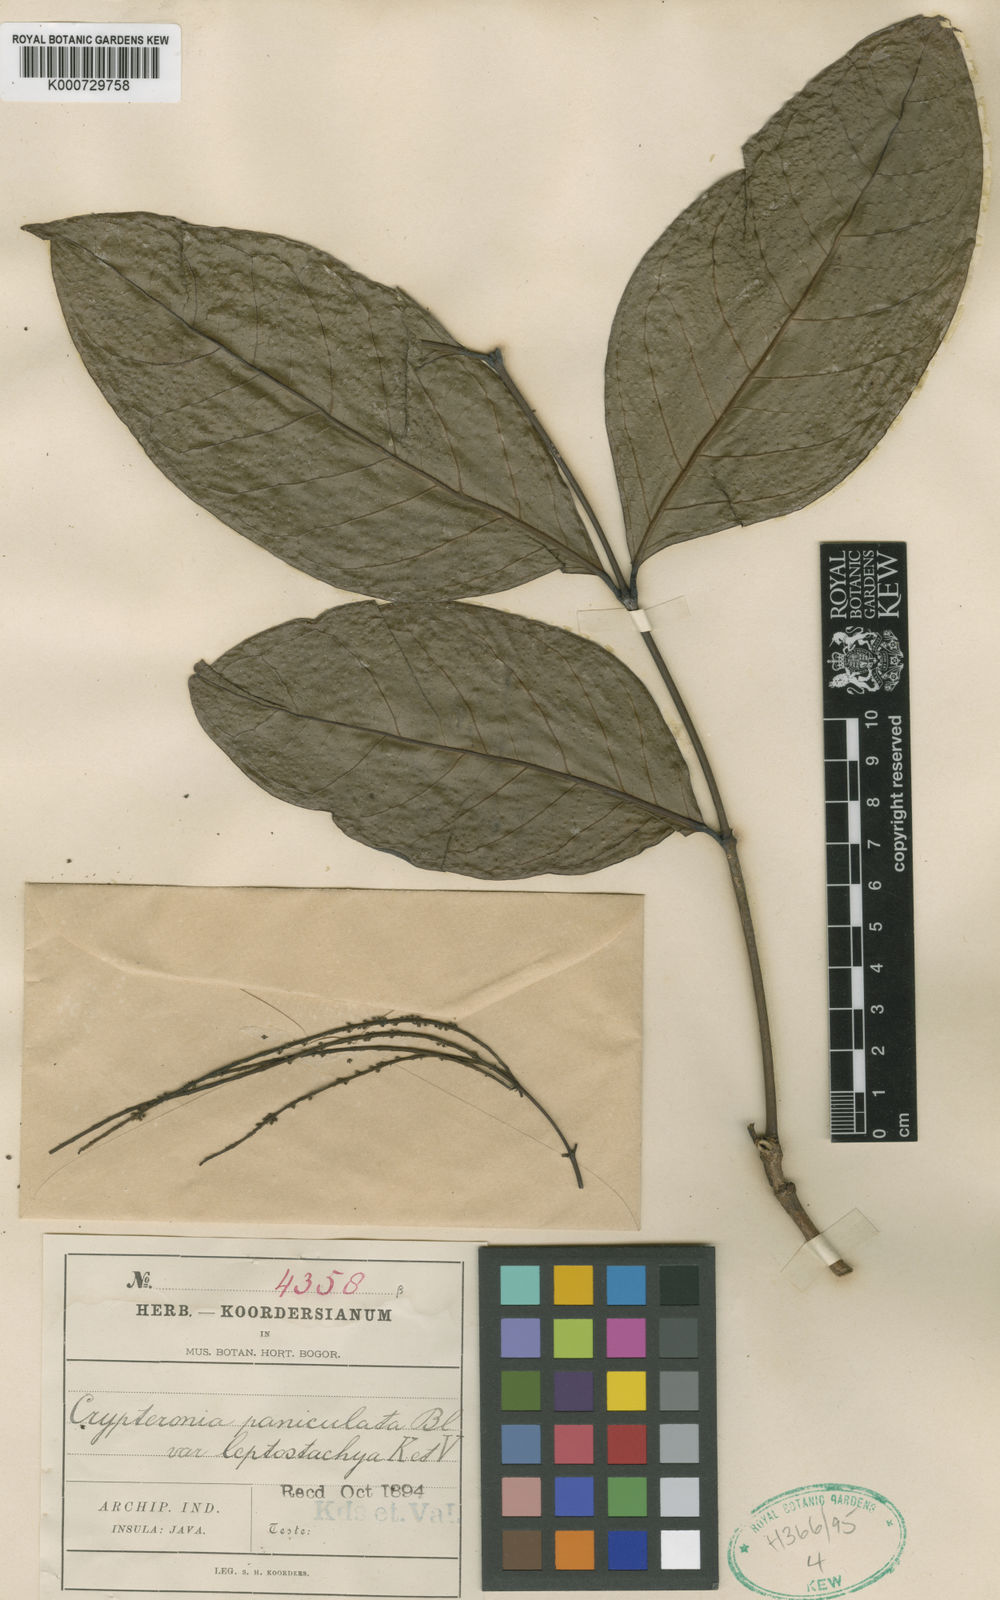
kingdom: Plantae
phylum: Tracheophyta
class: Magnoliopsida
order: Myrtales
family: Crypteroniaceae
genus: Crypteronia
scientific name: Crypteronia paniculata
